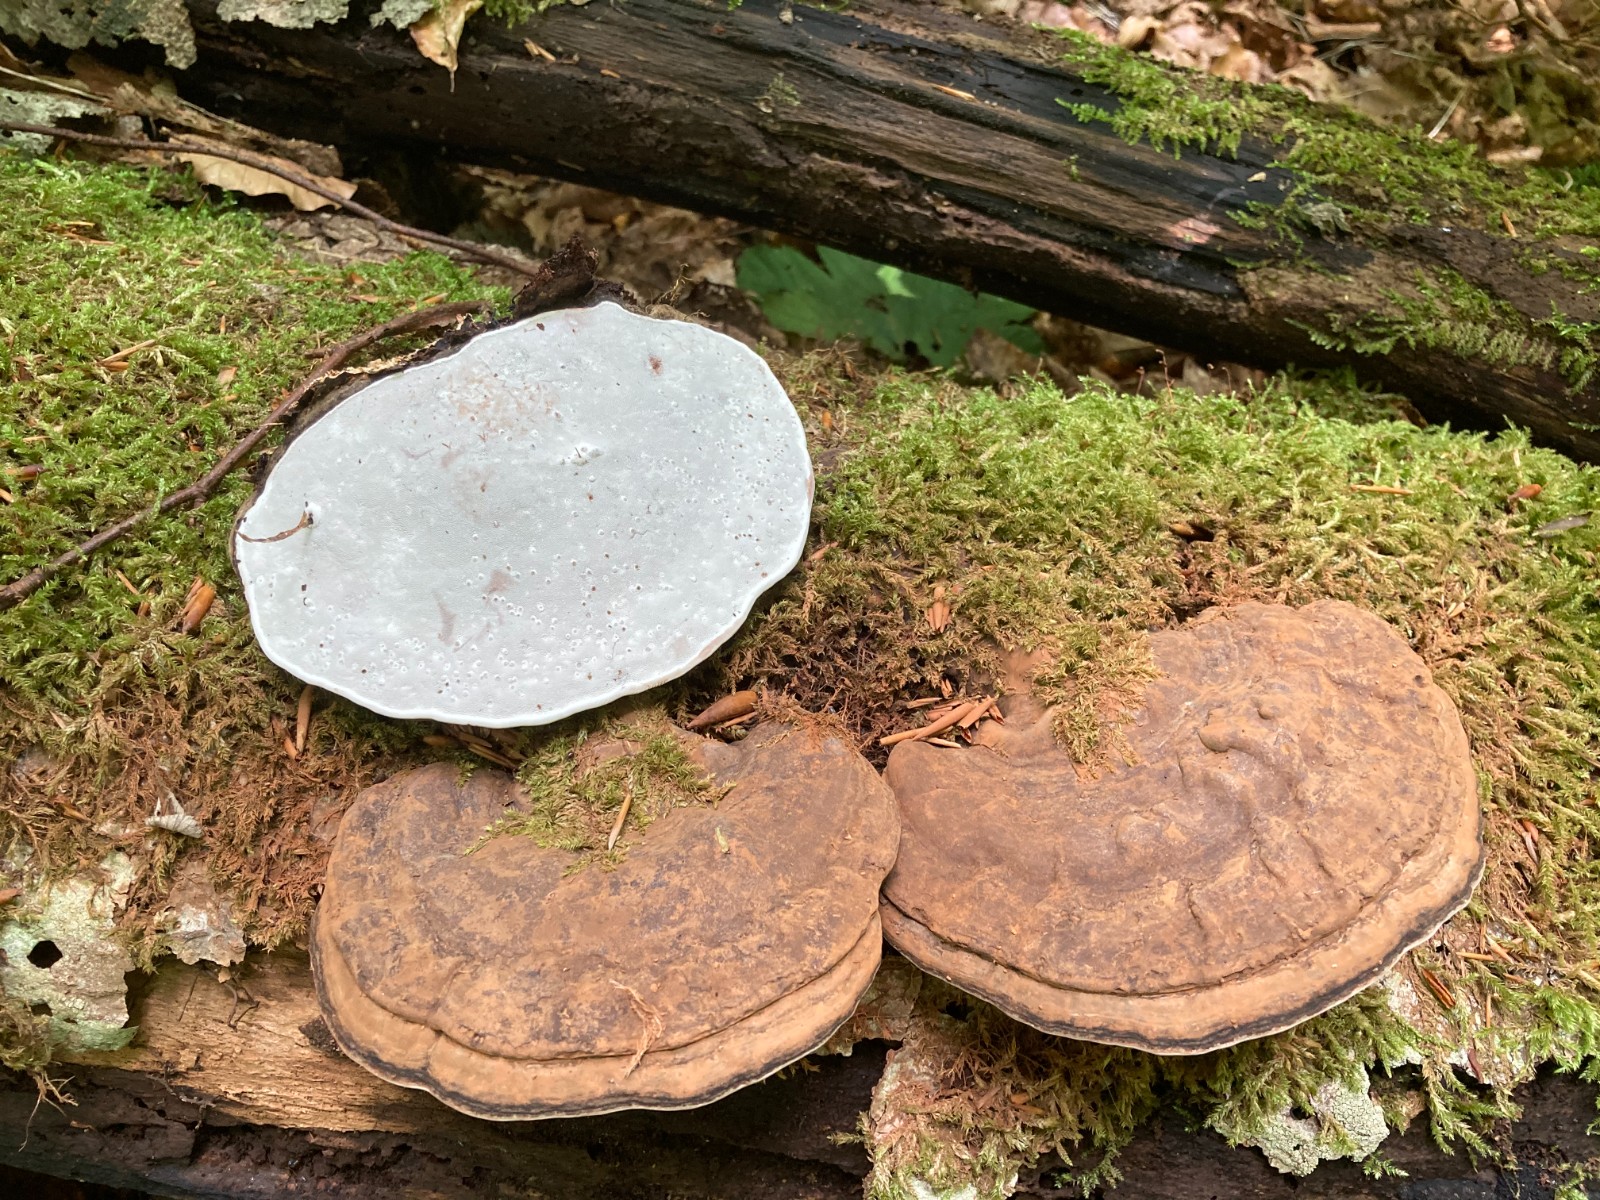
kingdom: Fungi
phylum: Basidiomycota
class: Agaricomycetes
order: Polyporales
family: Polyporaceae
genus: Ganoderma
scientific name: Ganoderma applanatum
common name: flad lakporesvamp
